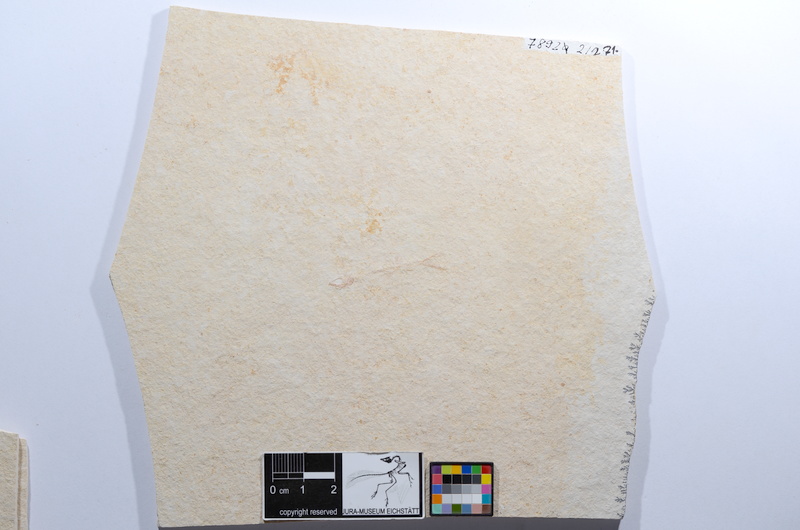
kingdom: Animalia
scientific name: Animalia
